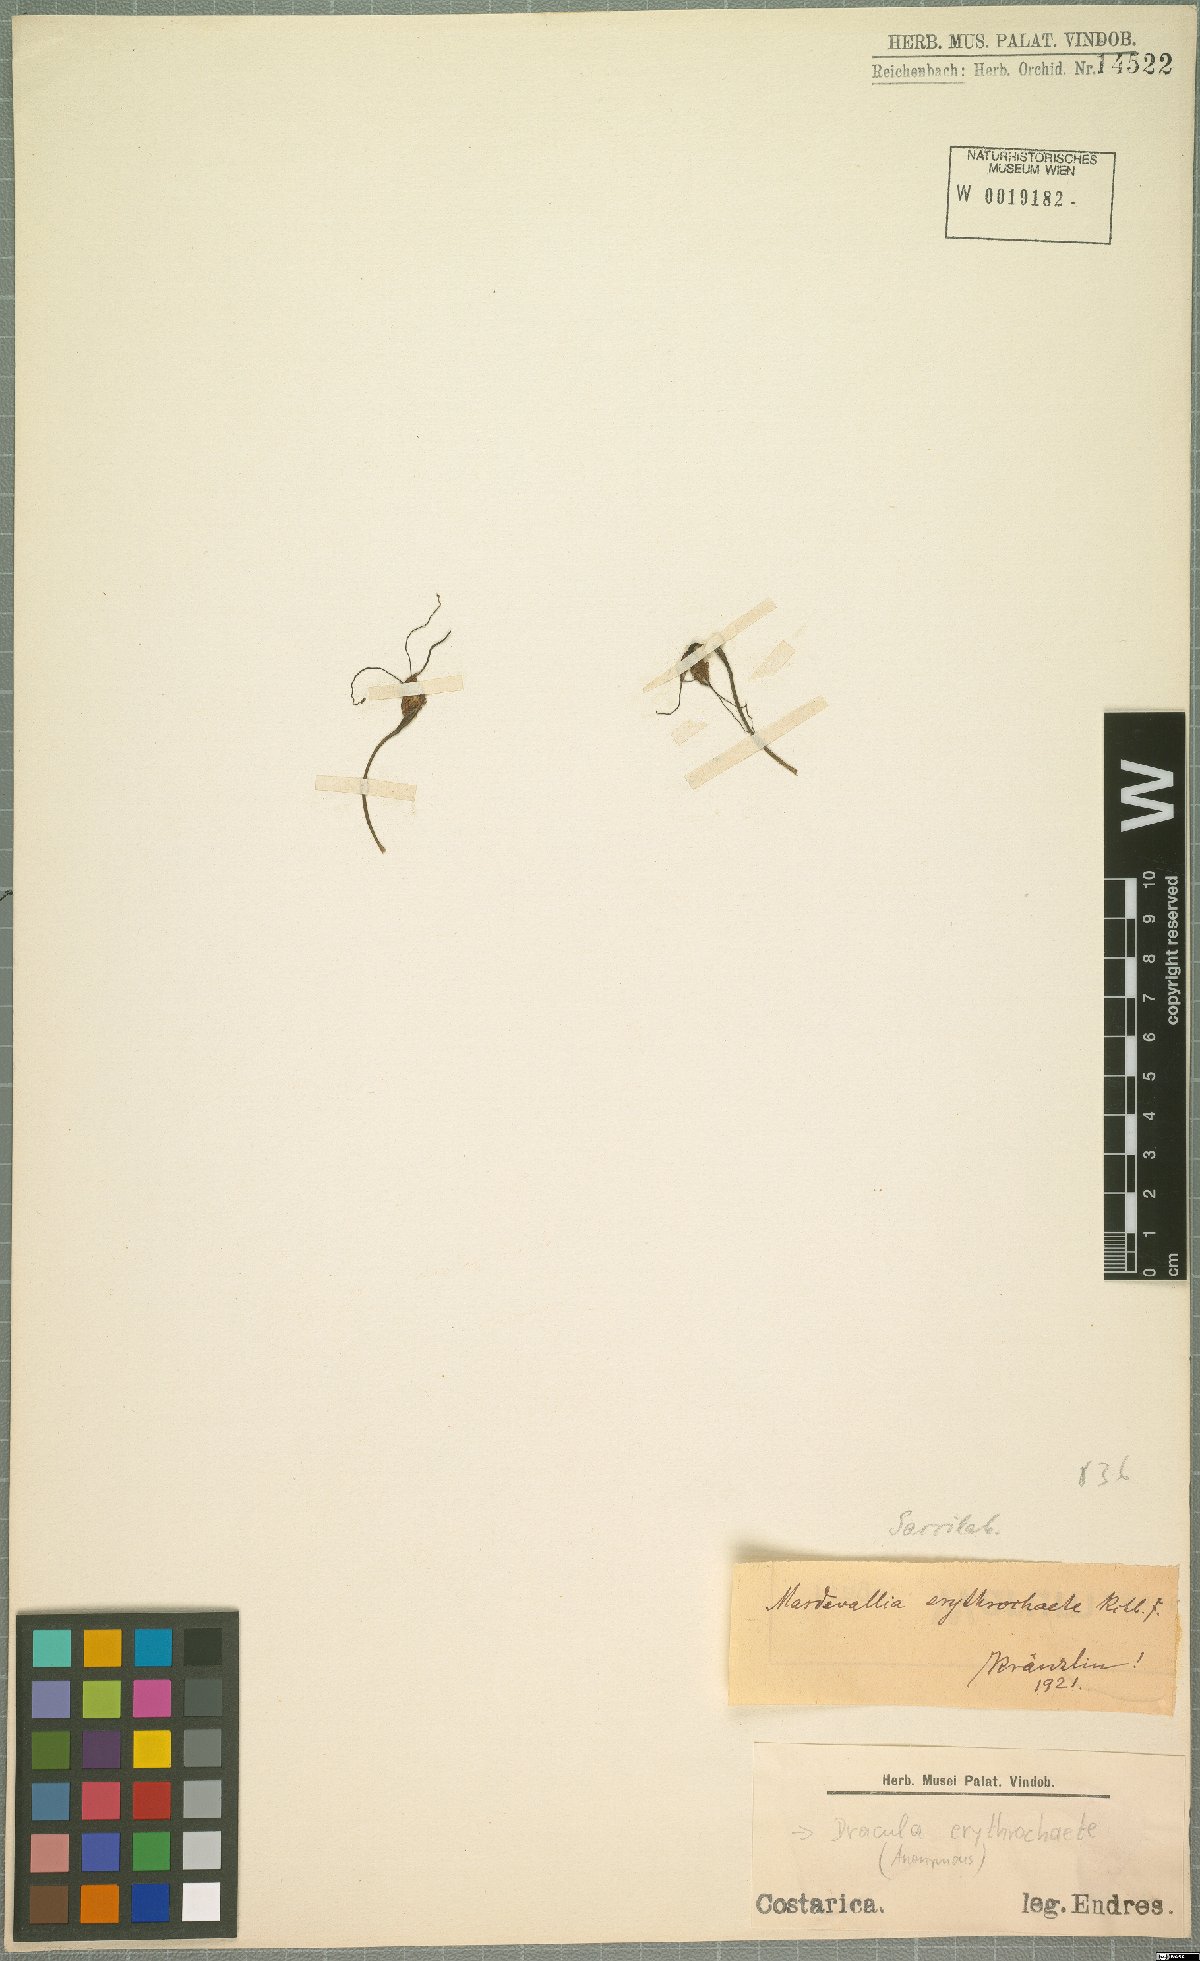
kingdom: Plantae
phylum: Tracheophyta
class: Liliopsida
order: Asparagales
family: Orchidaceae
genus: Dracula
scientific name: Dracula erythrochaete
